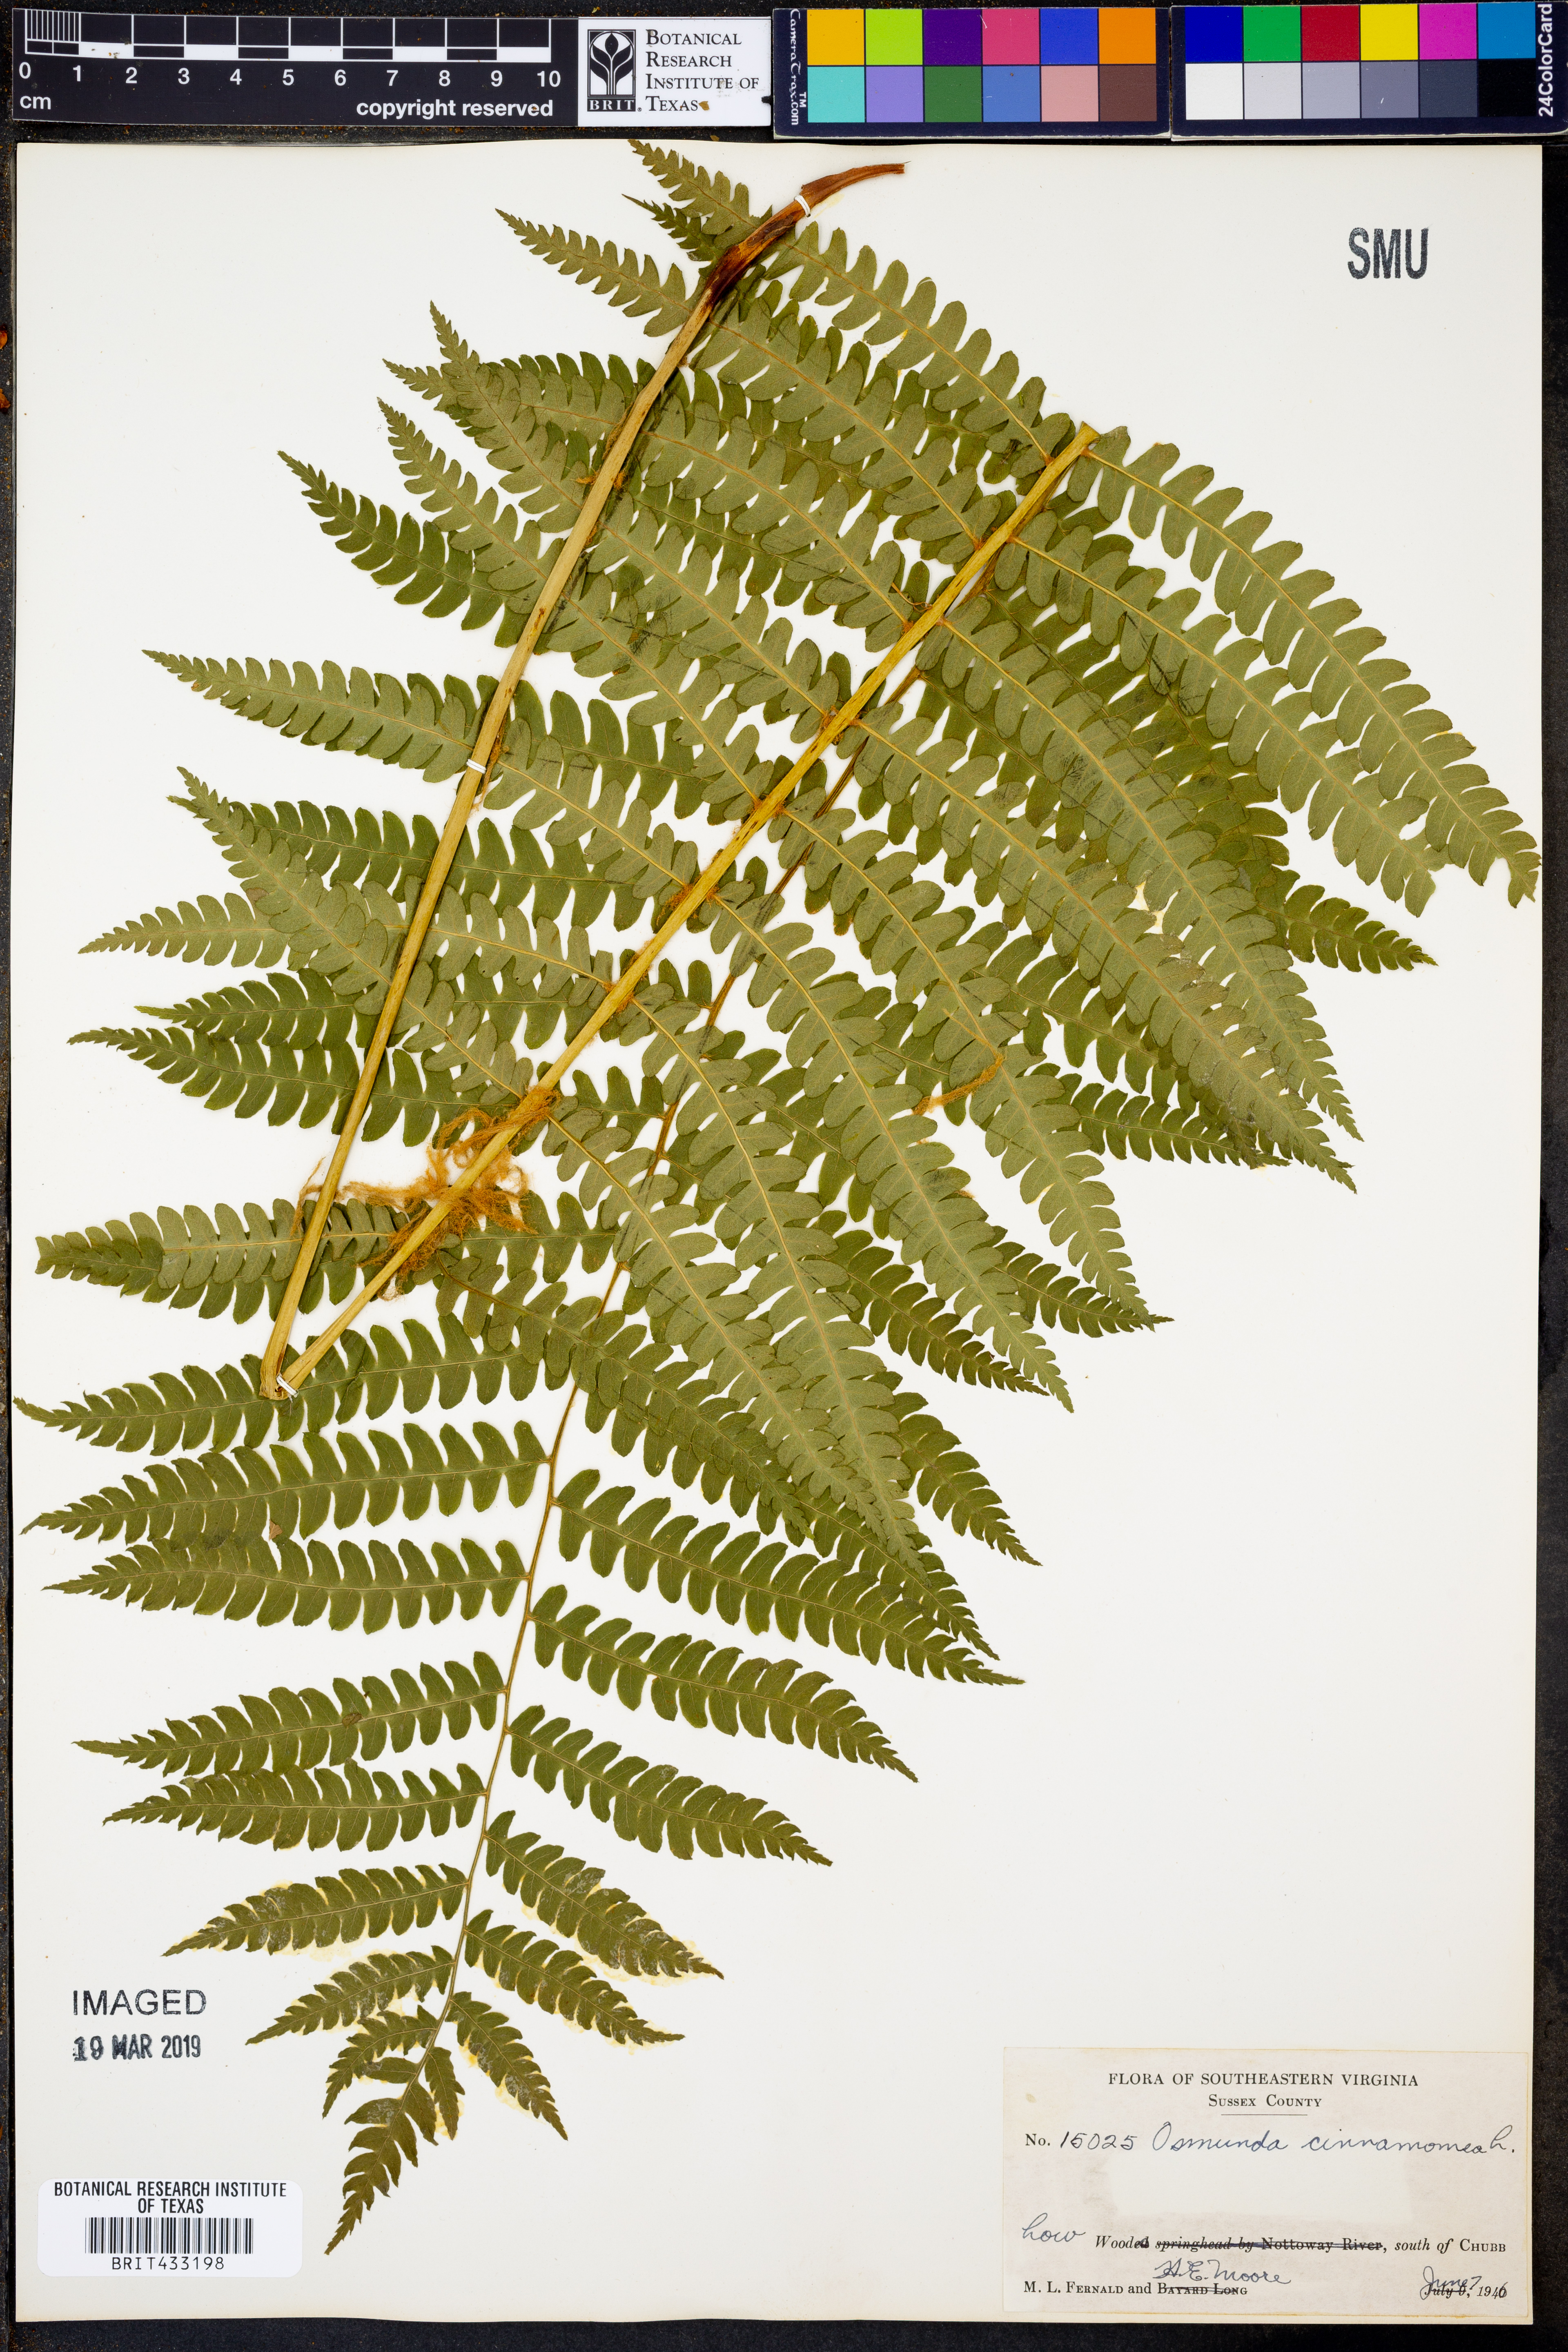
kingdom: Plantae
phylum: Tracheophyta
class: Polypodiopsida
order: Osmundales
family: Osmundaceae
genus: Osmundastrum
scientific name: Osmundastrum cinnamomeum
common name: Cinnamon fern
